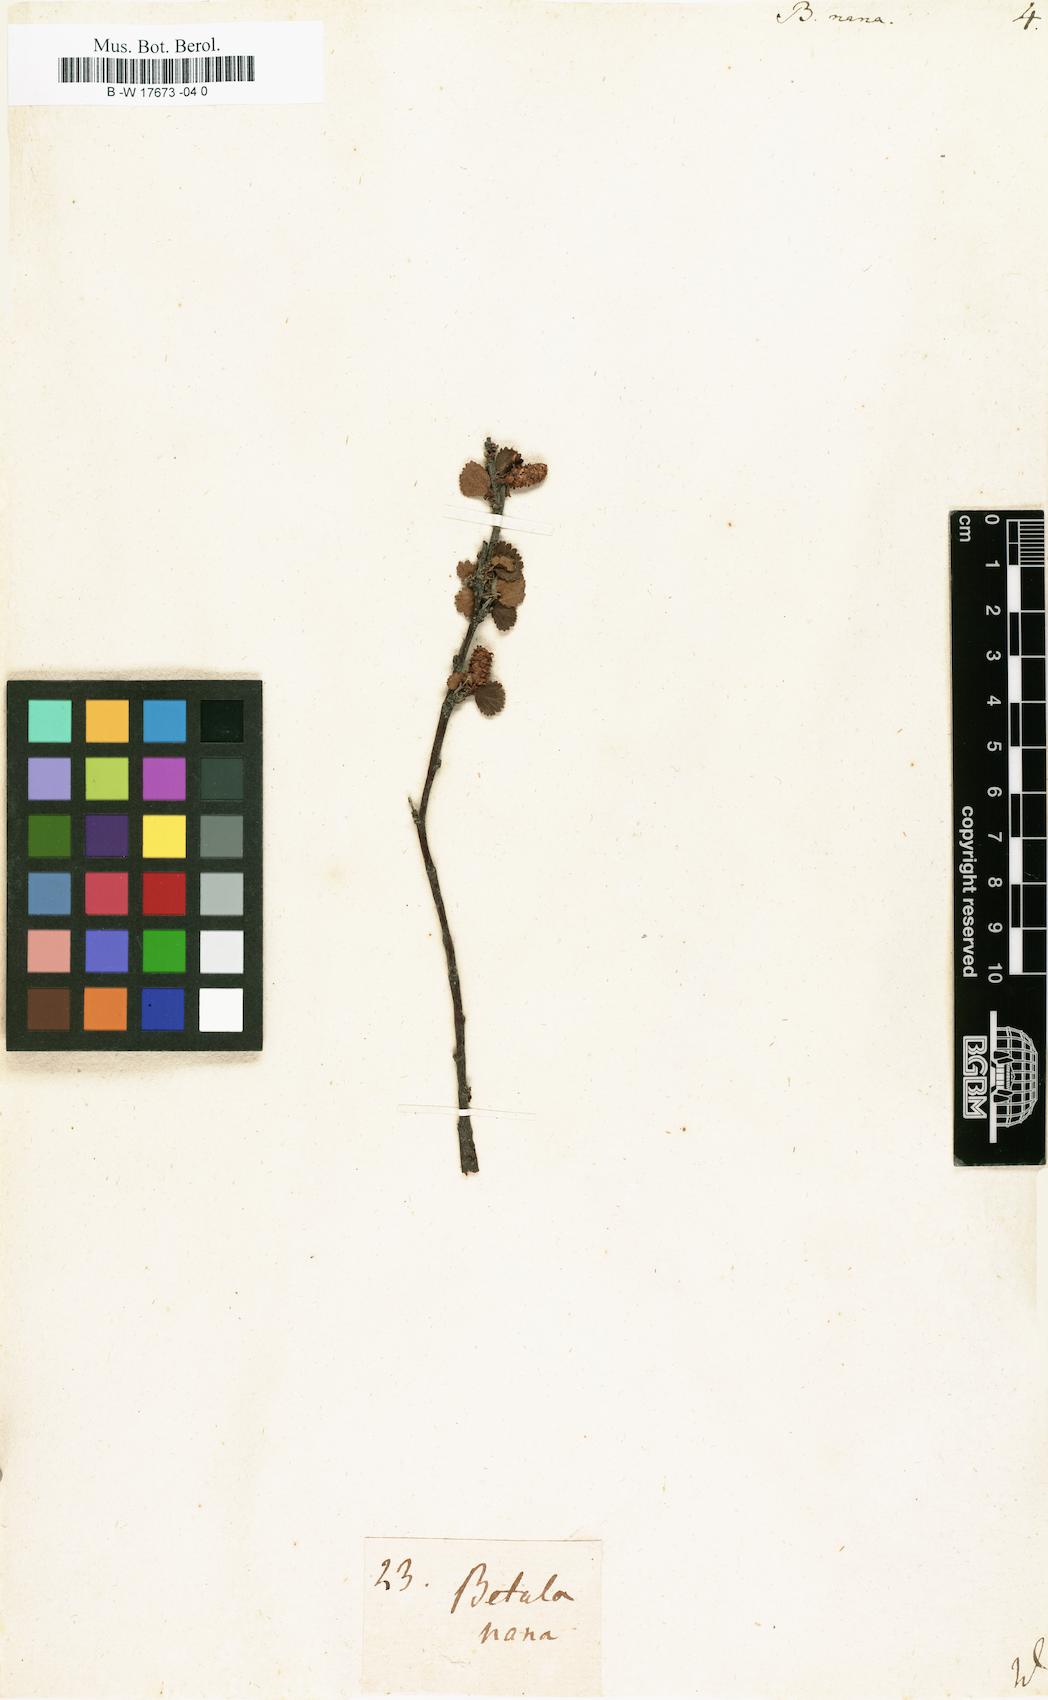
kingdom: Plantae
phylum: Tracheophyta
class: Magnoliopsida
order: Fagales
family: Betulaceae
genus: Betula
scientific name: Betula nana
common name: Arctic dwarf birch
